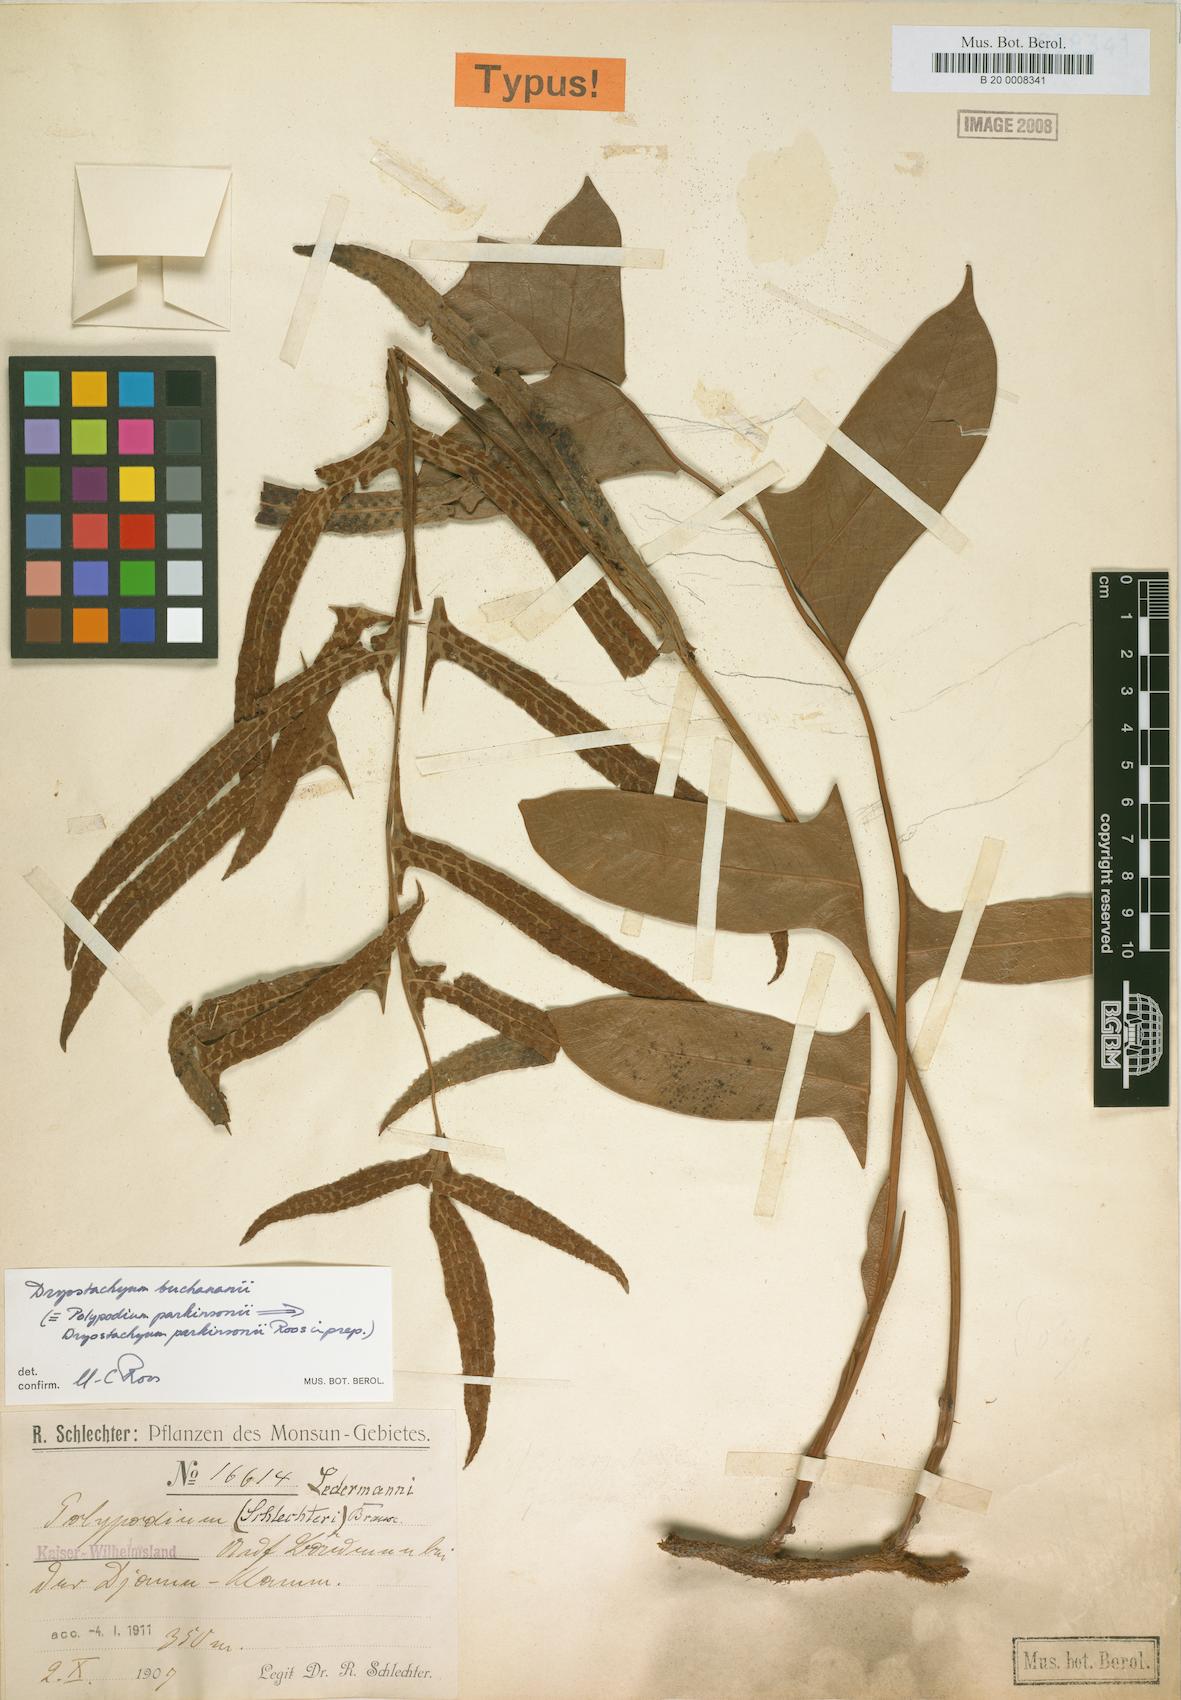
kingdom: Plantae
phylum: Tracheophyta
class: Polypodiopsida
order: Polypodiales
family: Polypodiaceae
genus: Drynaria
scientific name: Drynaria parkinsonii
